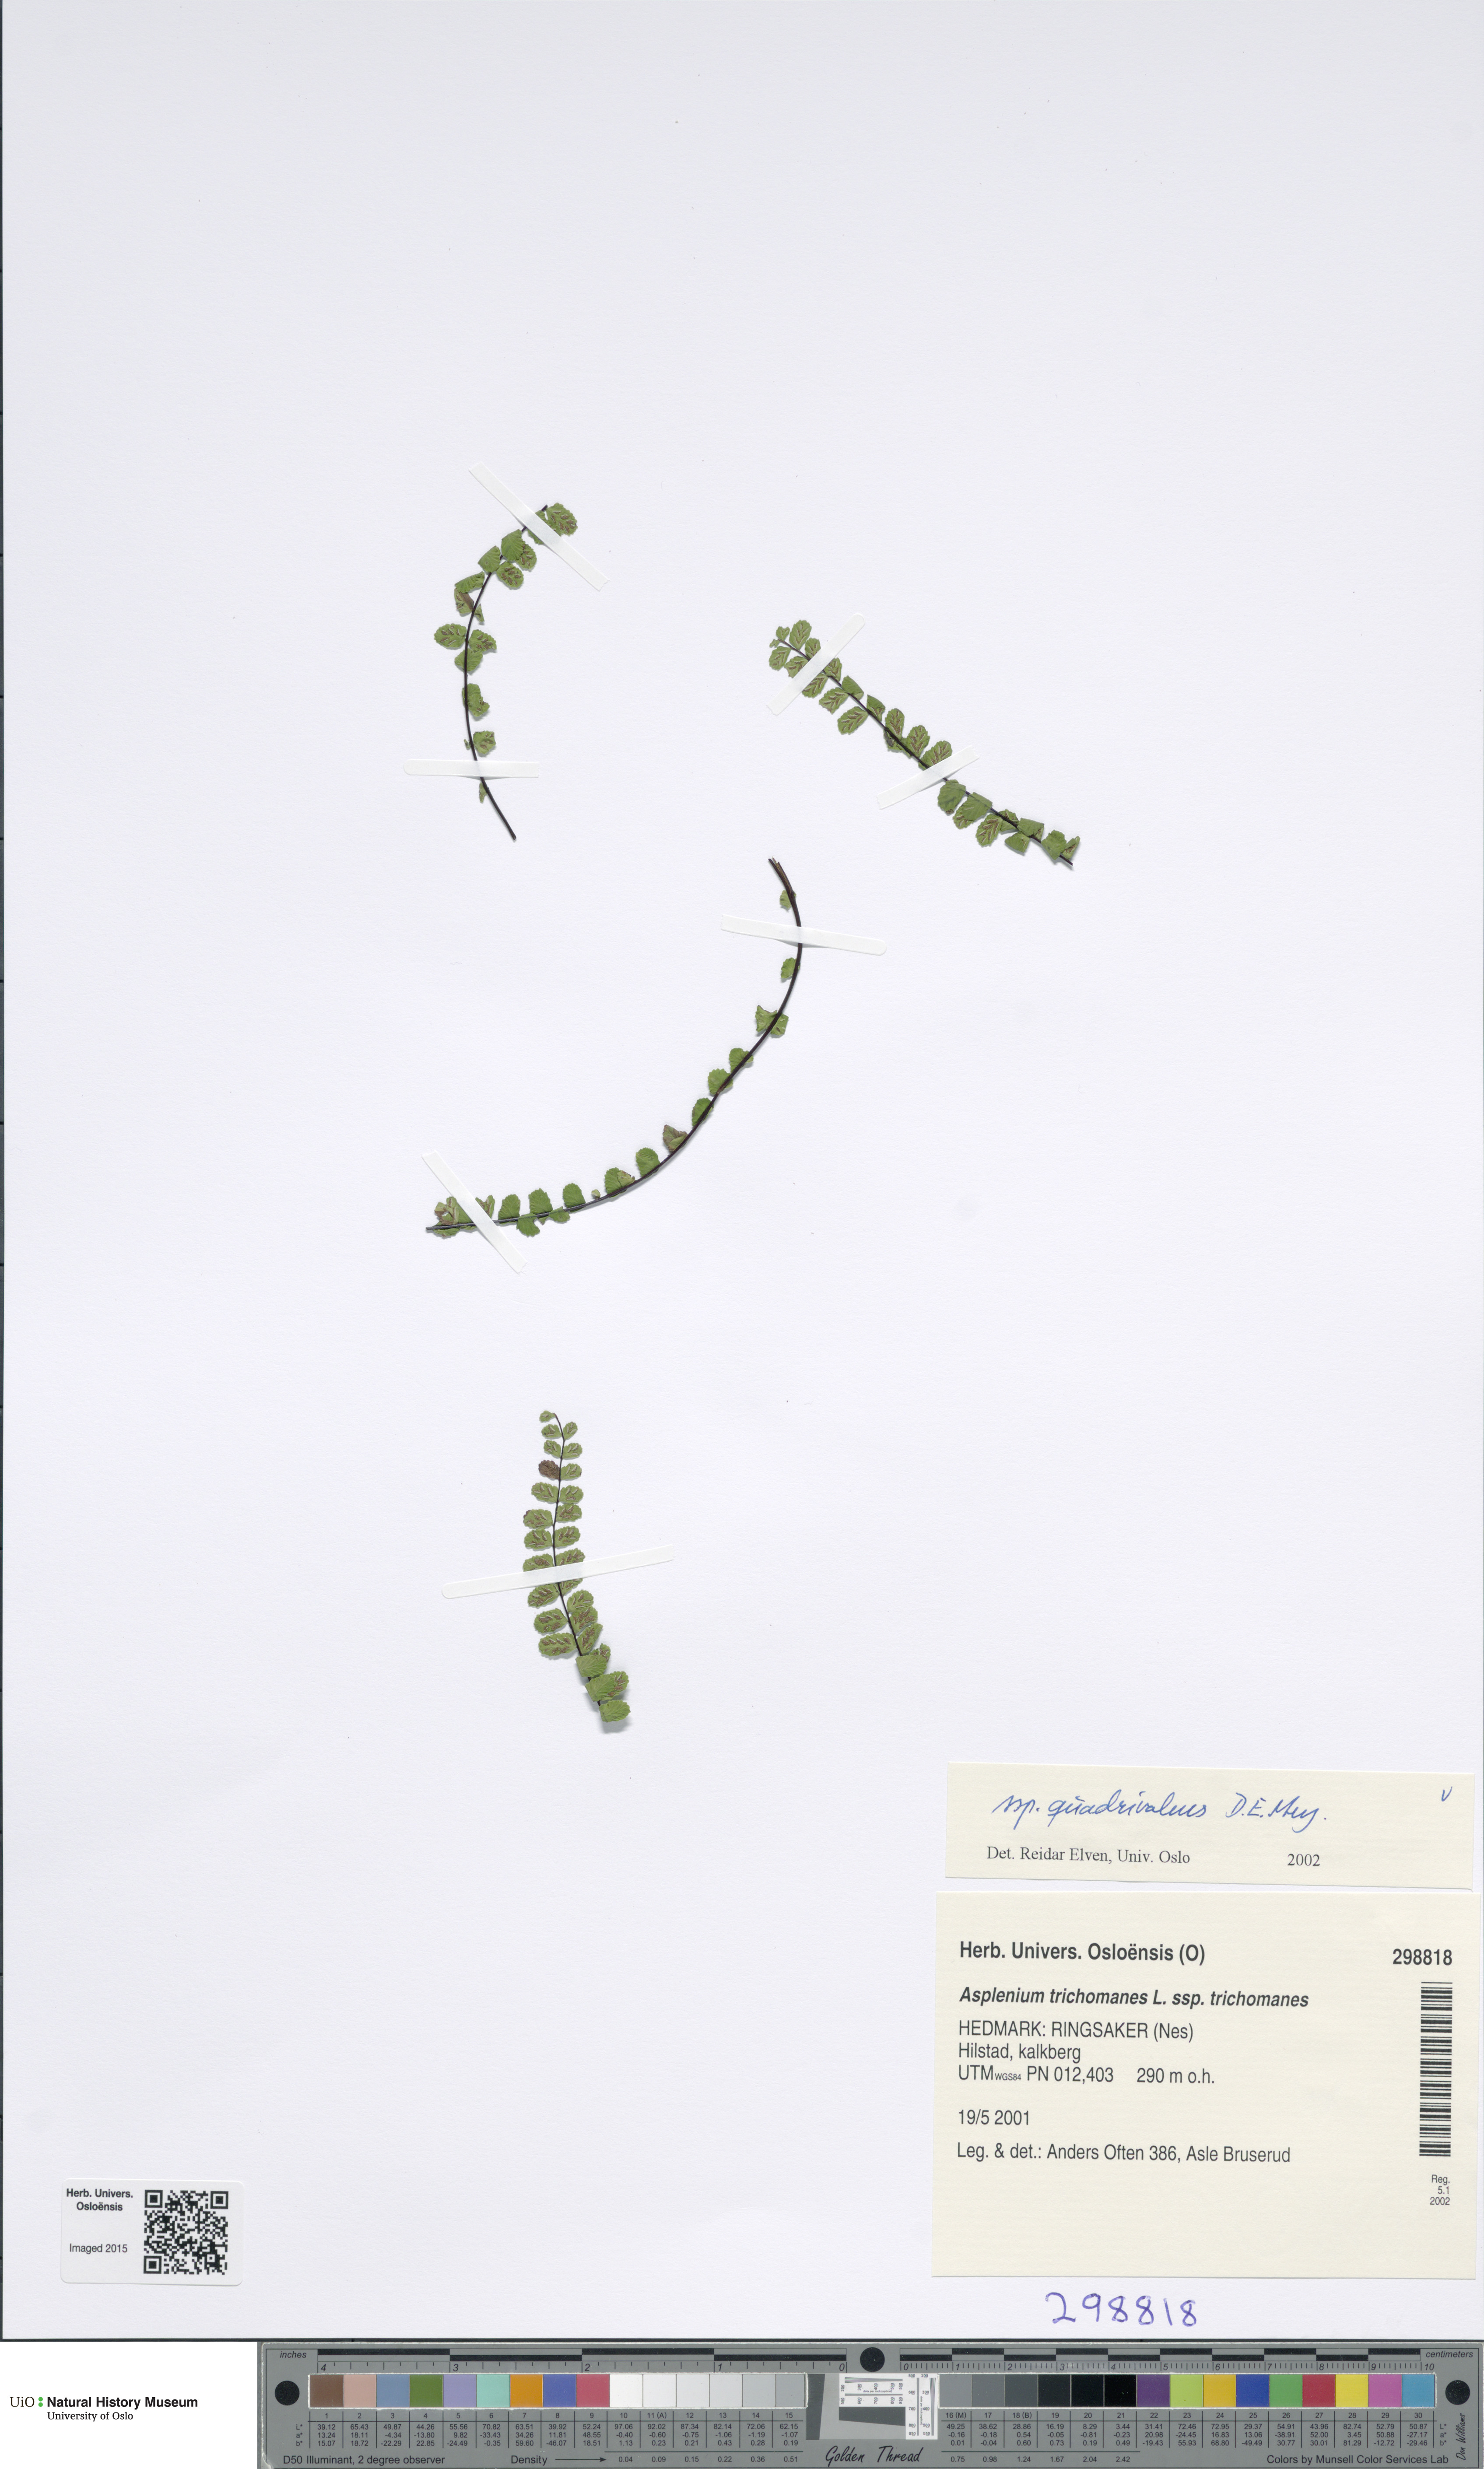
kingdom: Plantae
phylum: Tracheophyta
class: Polypodiopsida
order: Polypodiales
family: Aspleniaceae
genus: Asplenium
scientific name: Asplenium quadrivalens
